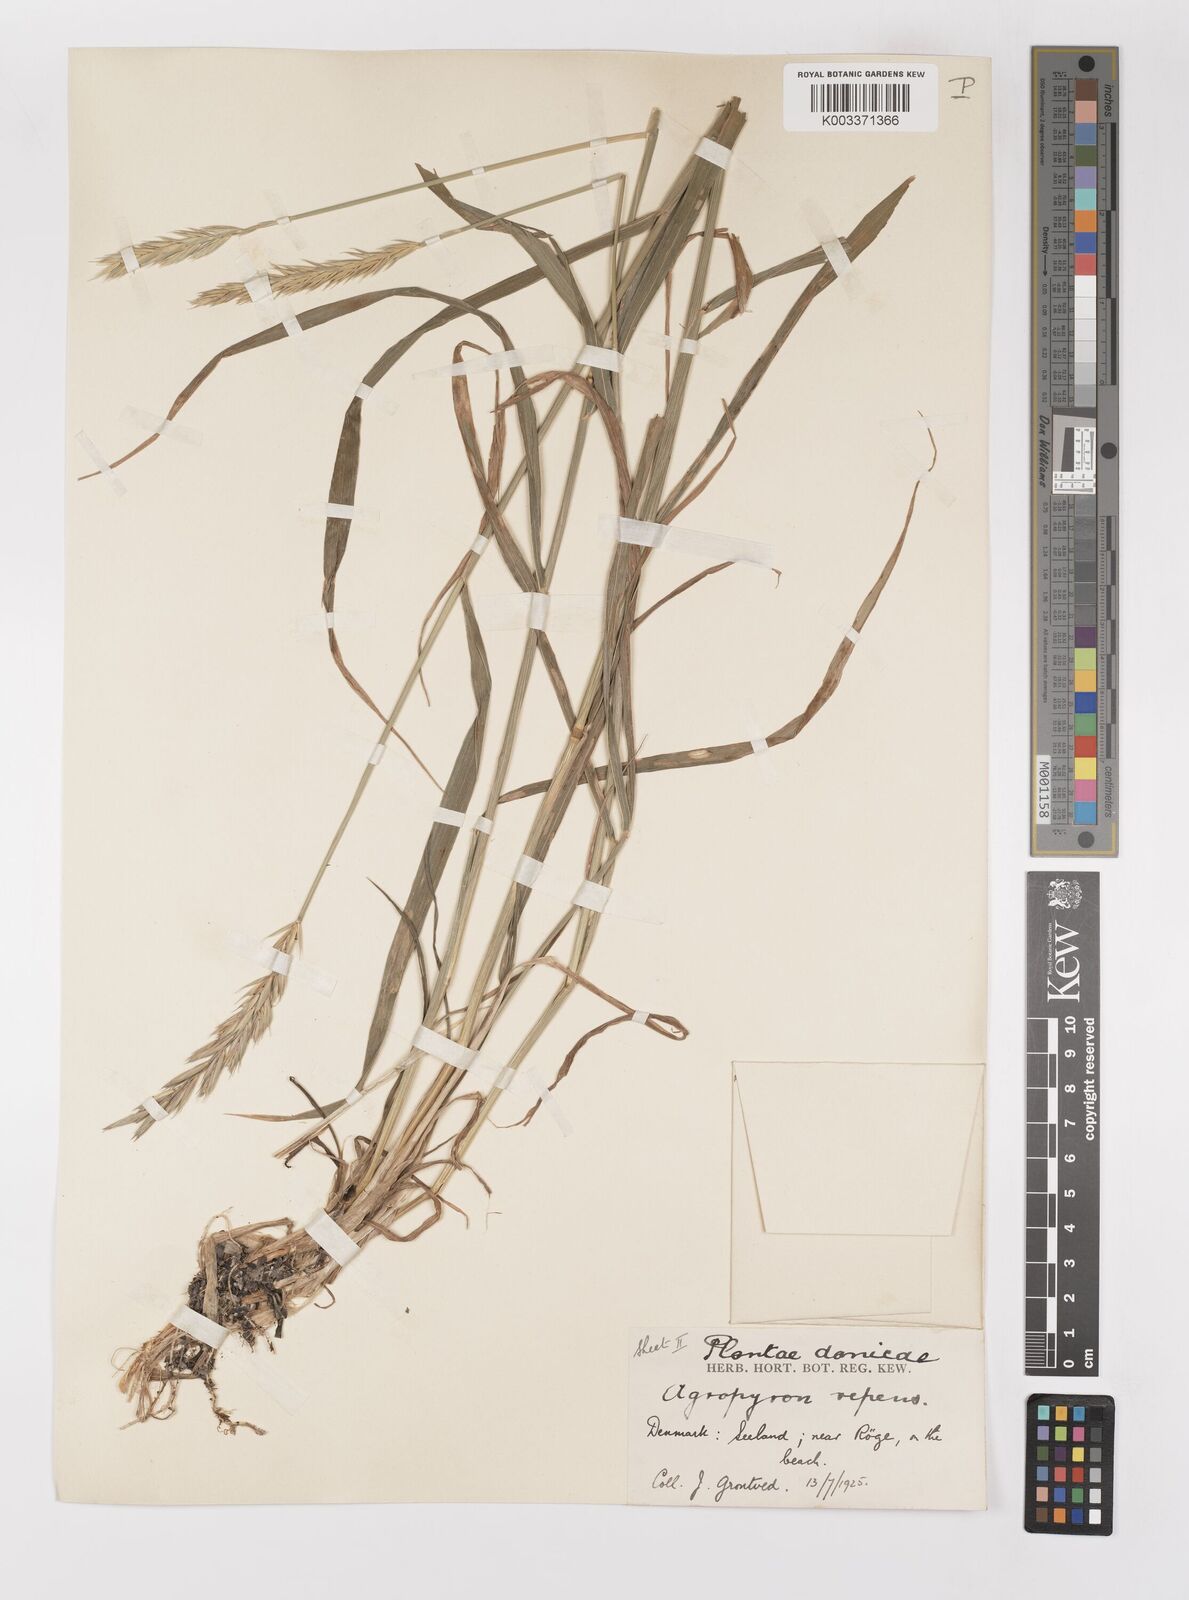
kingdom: Plantae
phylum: Tracheophyta
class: Liliopsida
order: Poales
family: Poaceae
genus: Elymus
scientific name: Elymus repens
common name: Quackgrass
